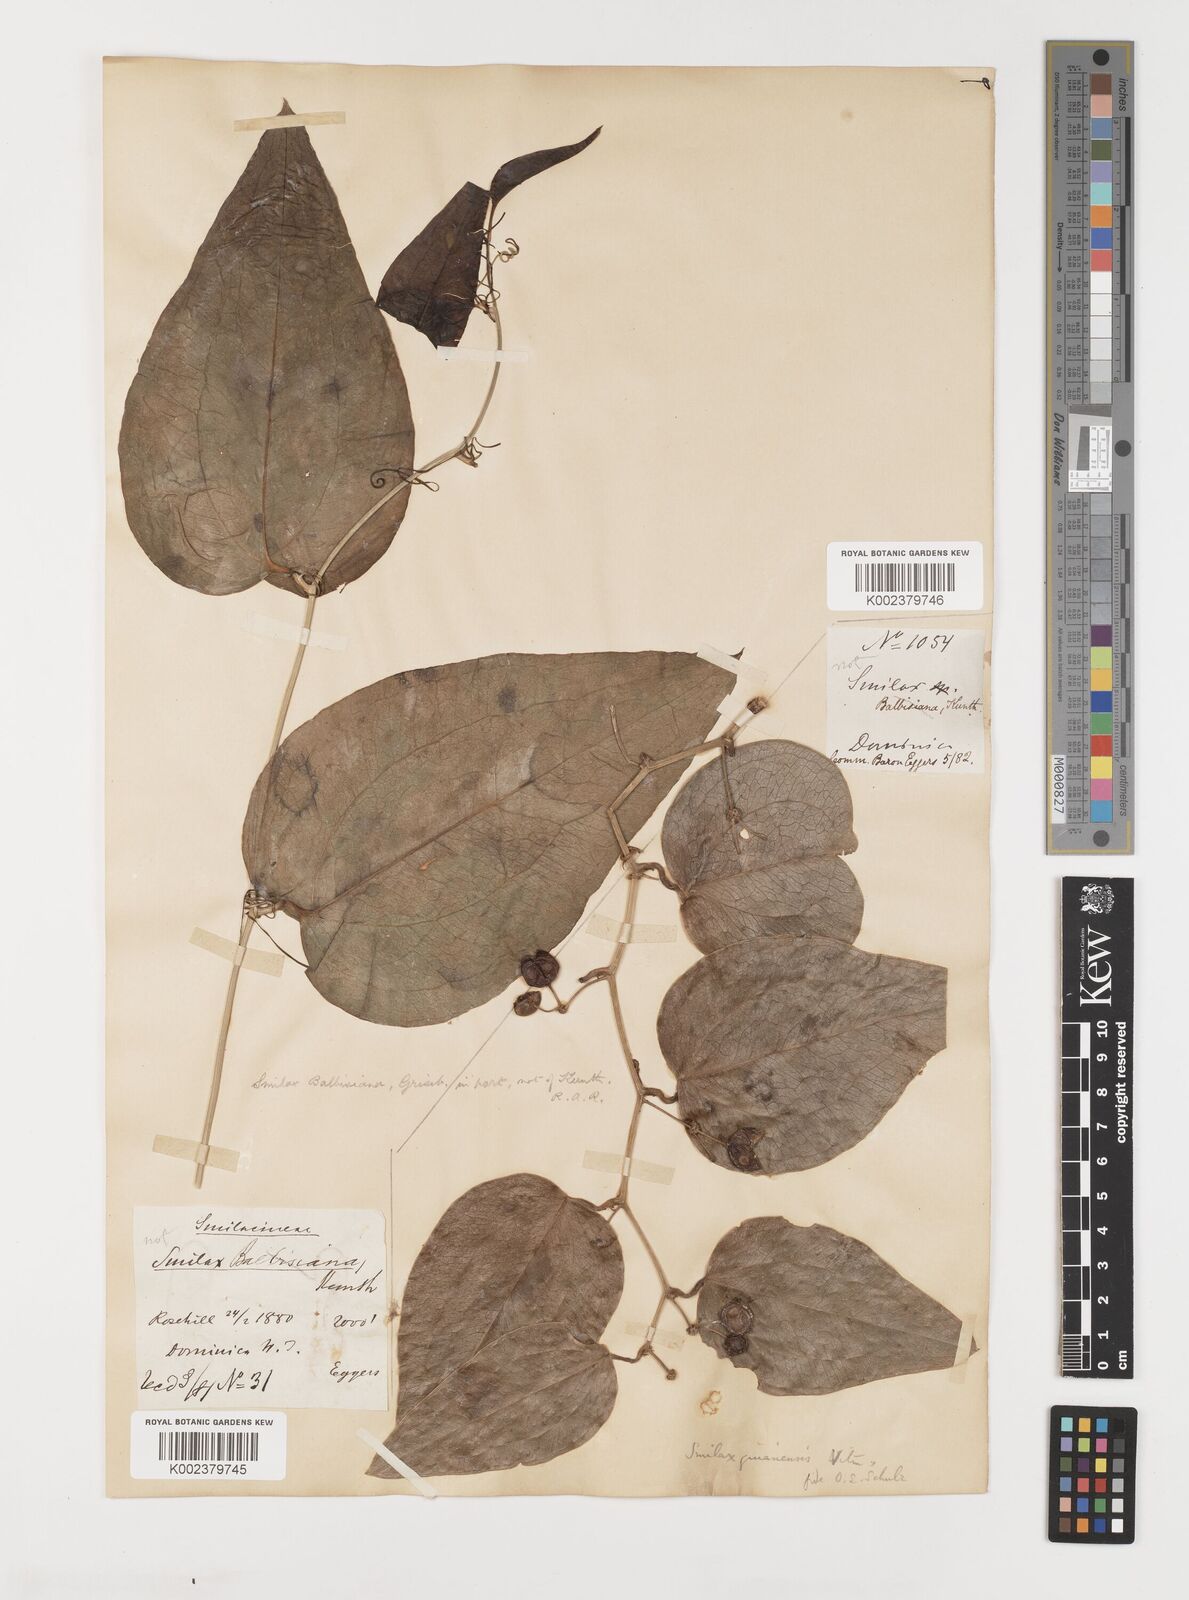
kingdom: Plantae
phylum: Tracheophyta
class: Liliopsida
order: Liliales
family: Smilacaceae
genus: Smilax
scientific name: Smilax guianensis
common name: Basket hoop
